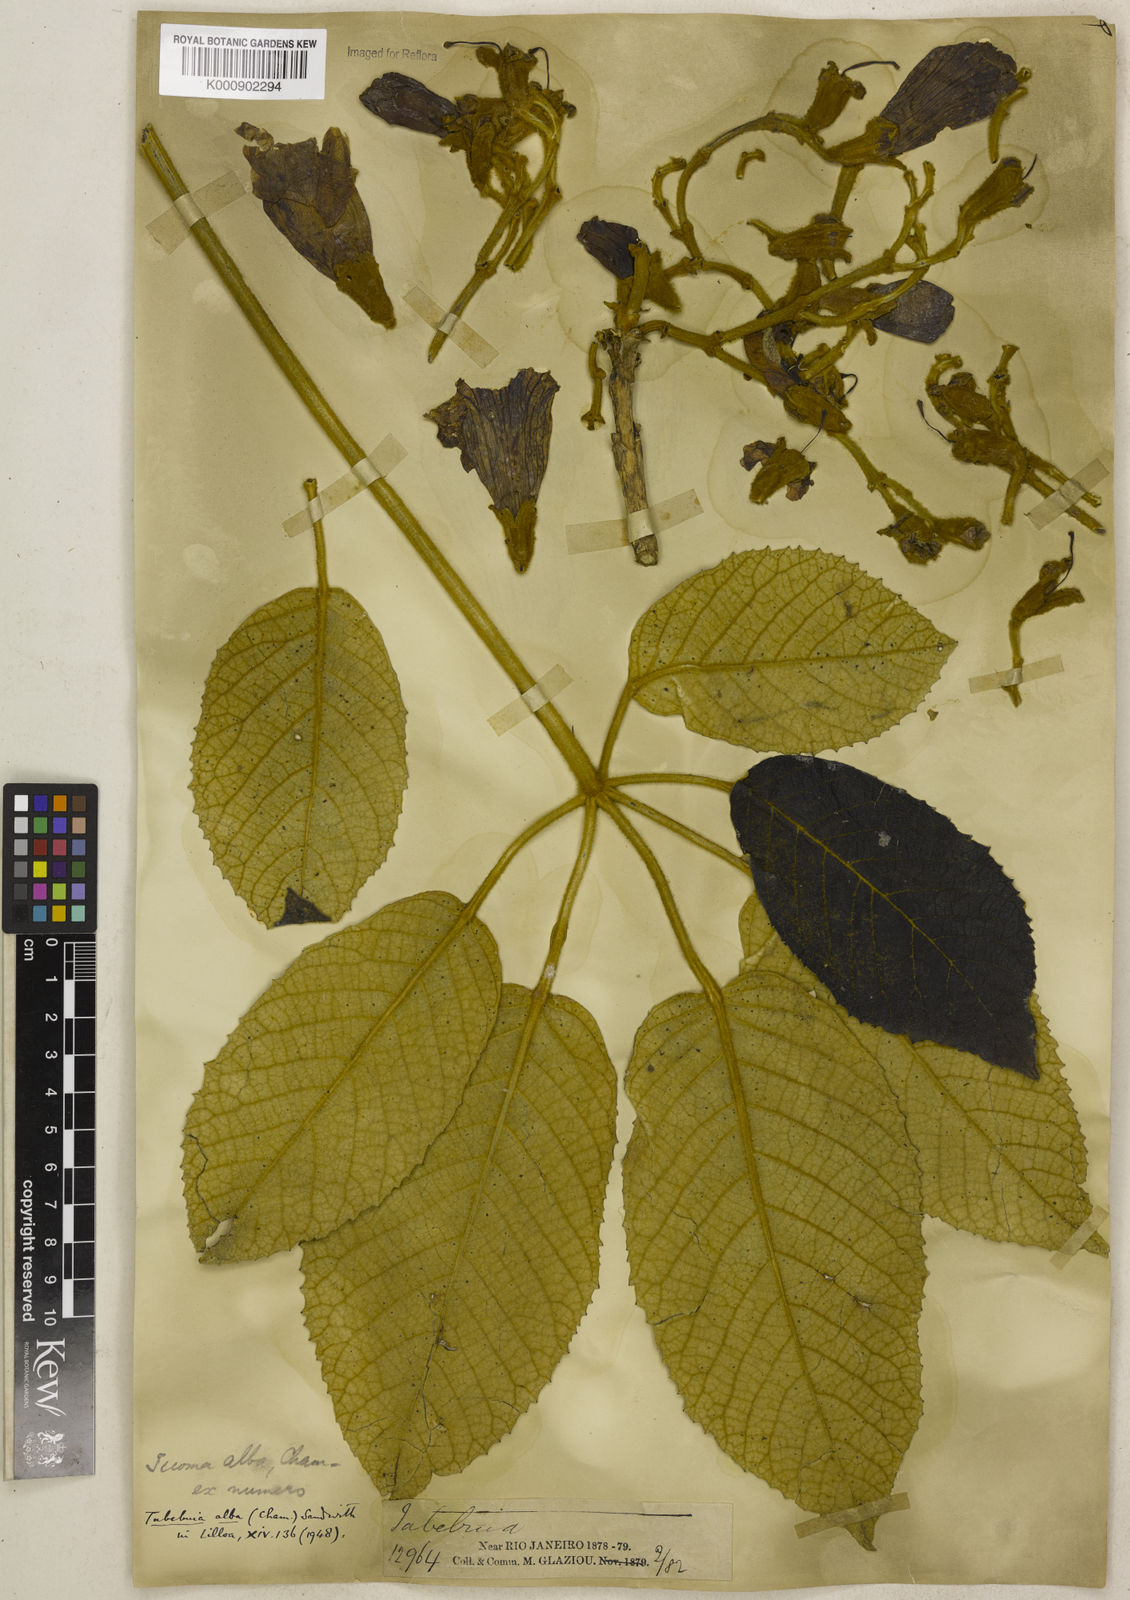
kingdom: Plantae
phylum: Tracheophyta
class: Magnoliopsida
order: Lamiales
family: Bignoniaceae
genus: Handroanthus
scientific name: Handroanthus albus
